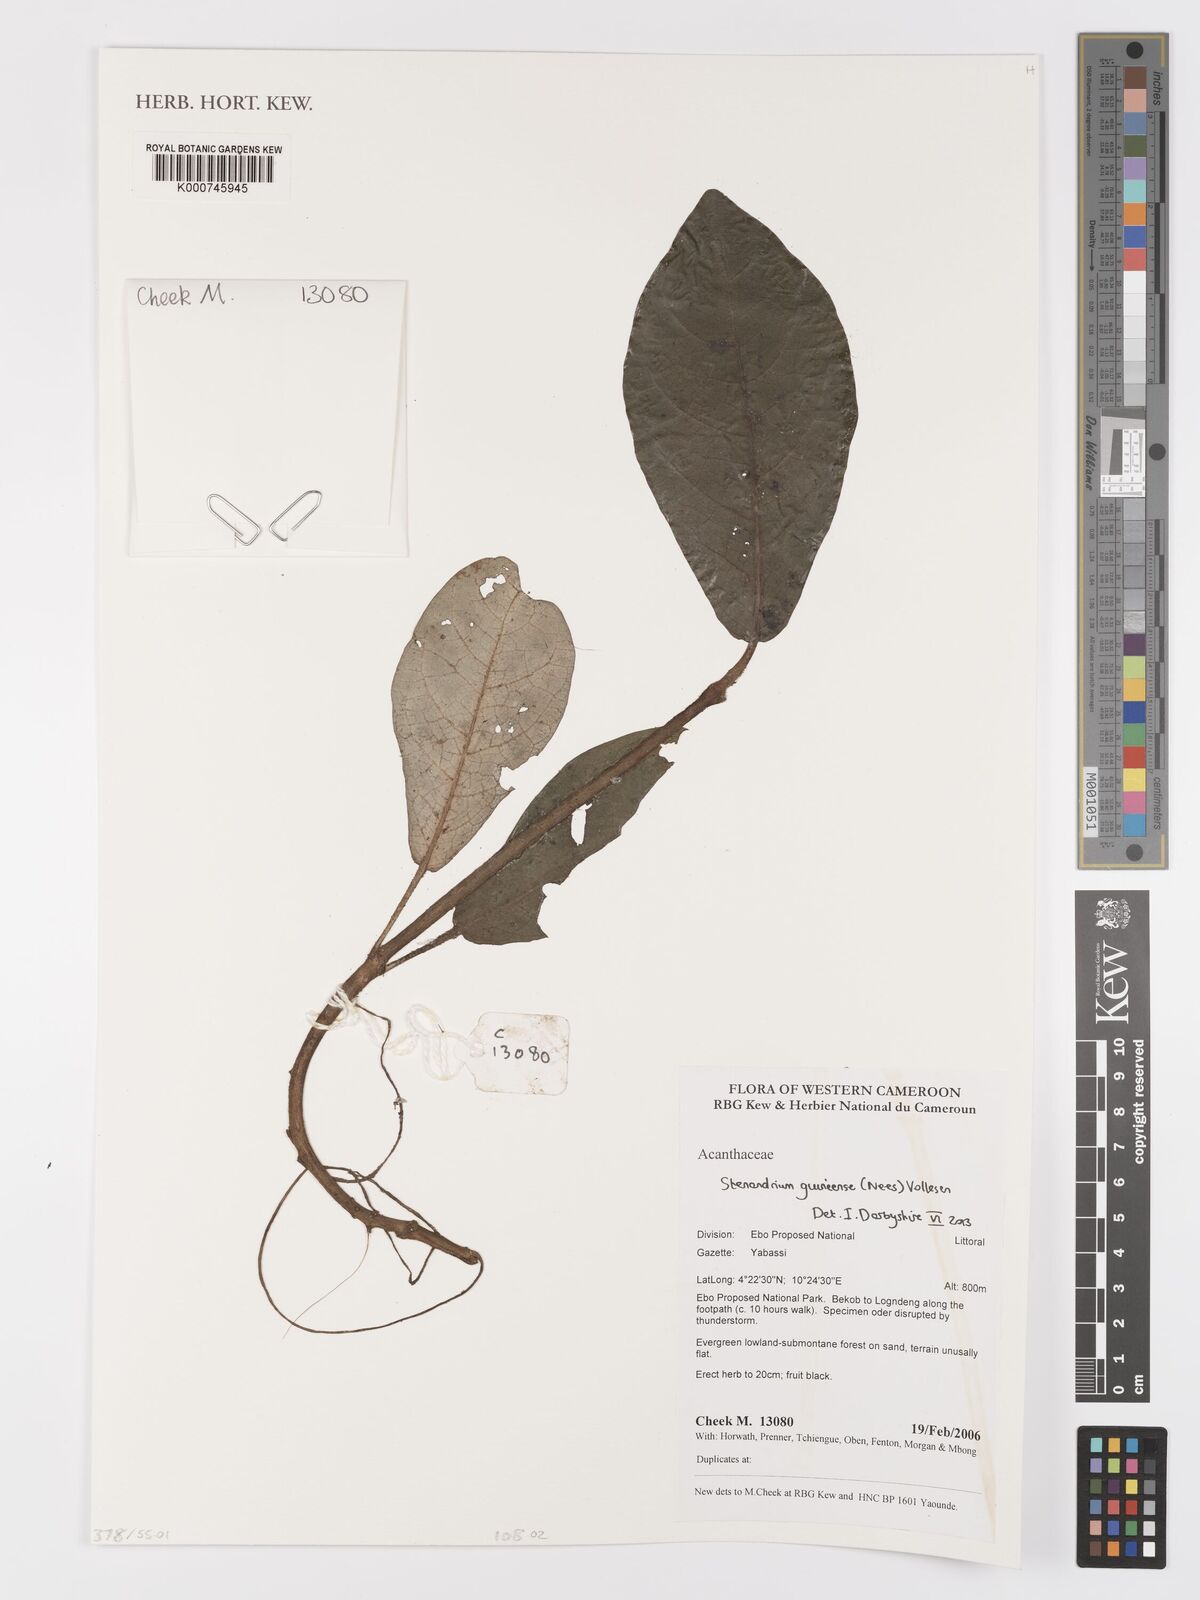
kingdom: Plantae
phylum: Tracheophyta
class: Magnoliopsida
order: Lamiales
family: Acanthaceae
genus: Stenandriopsis
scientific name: Stenandriopsis guineensis
